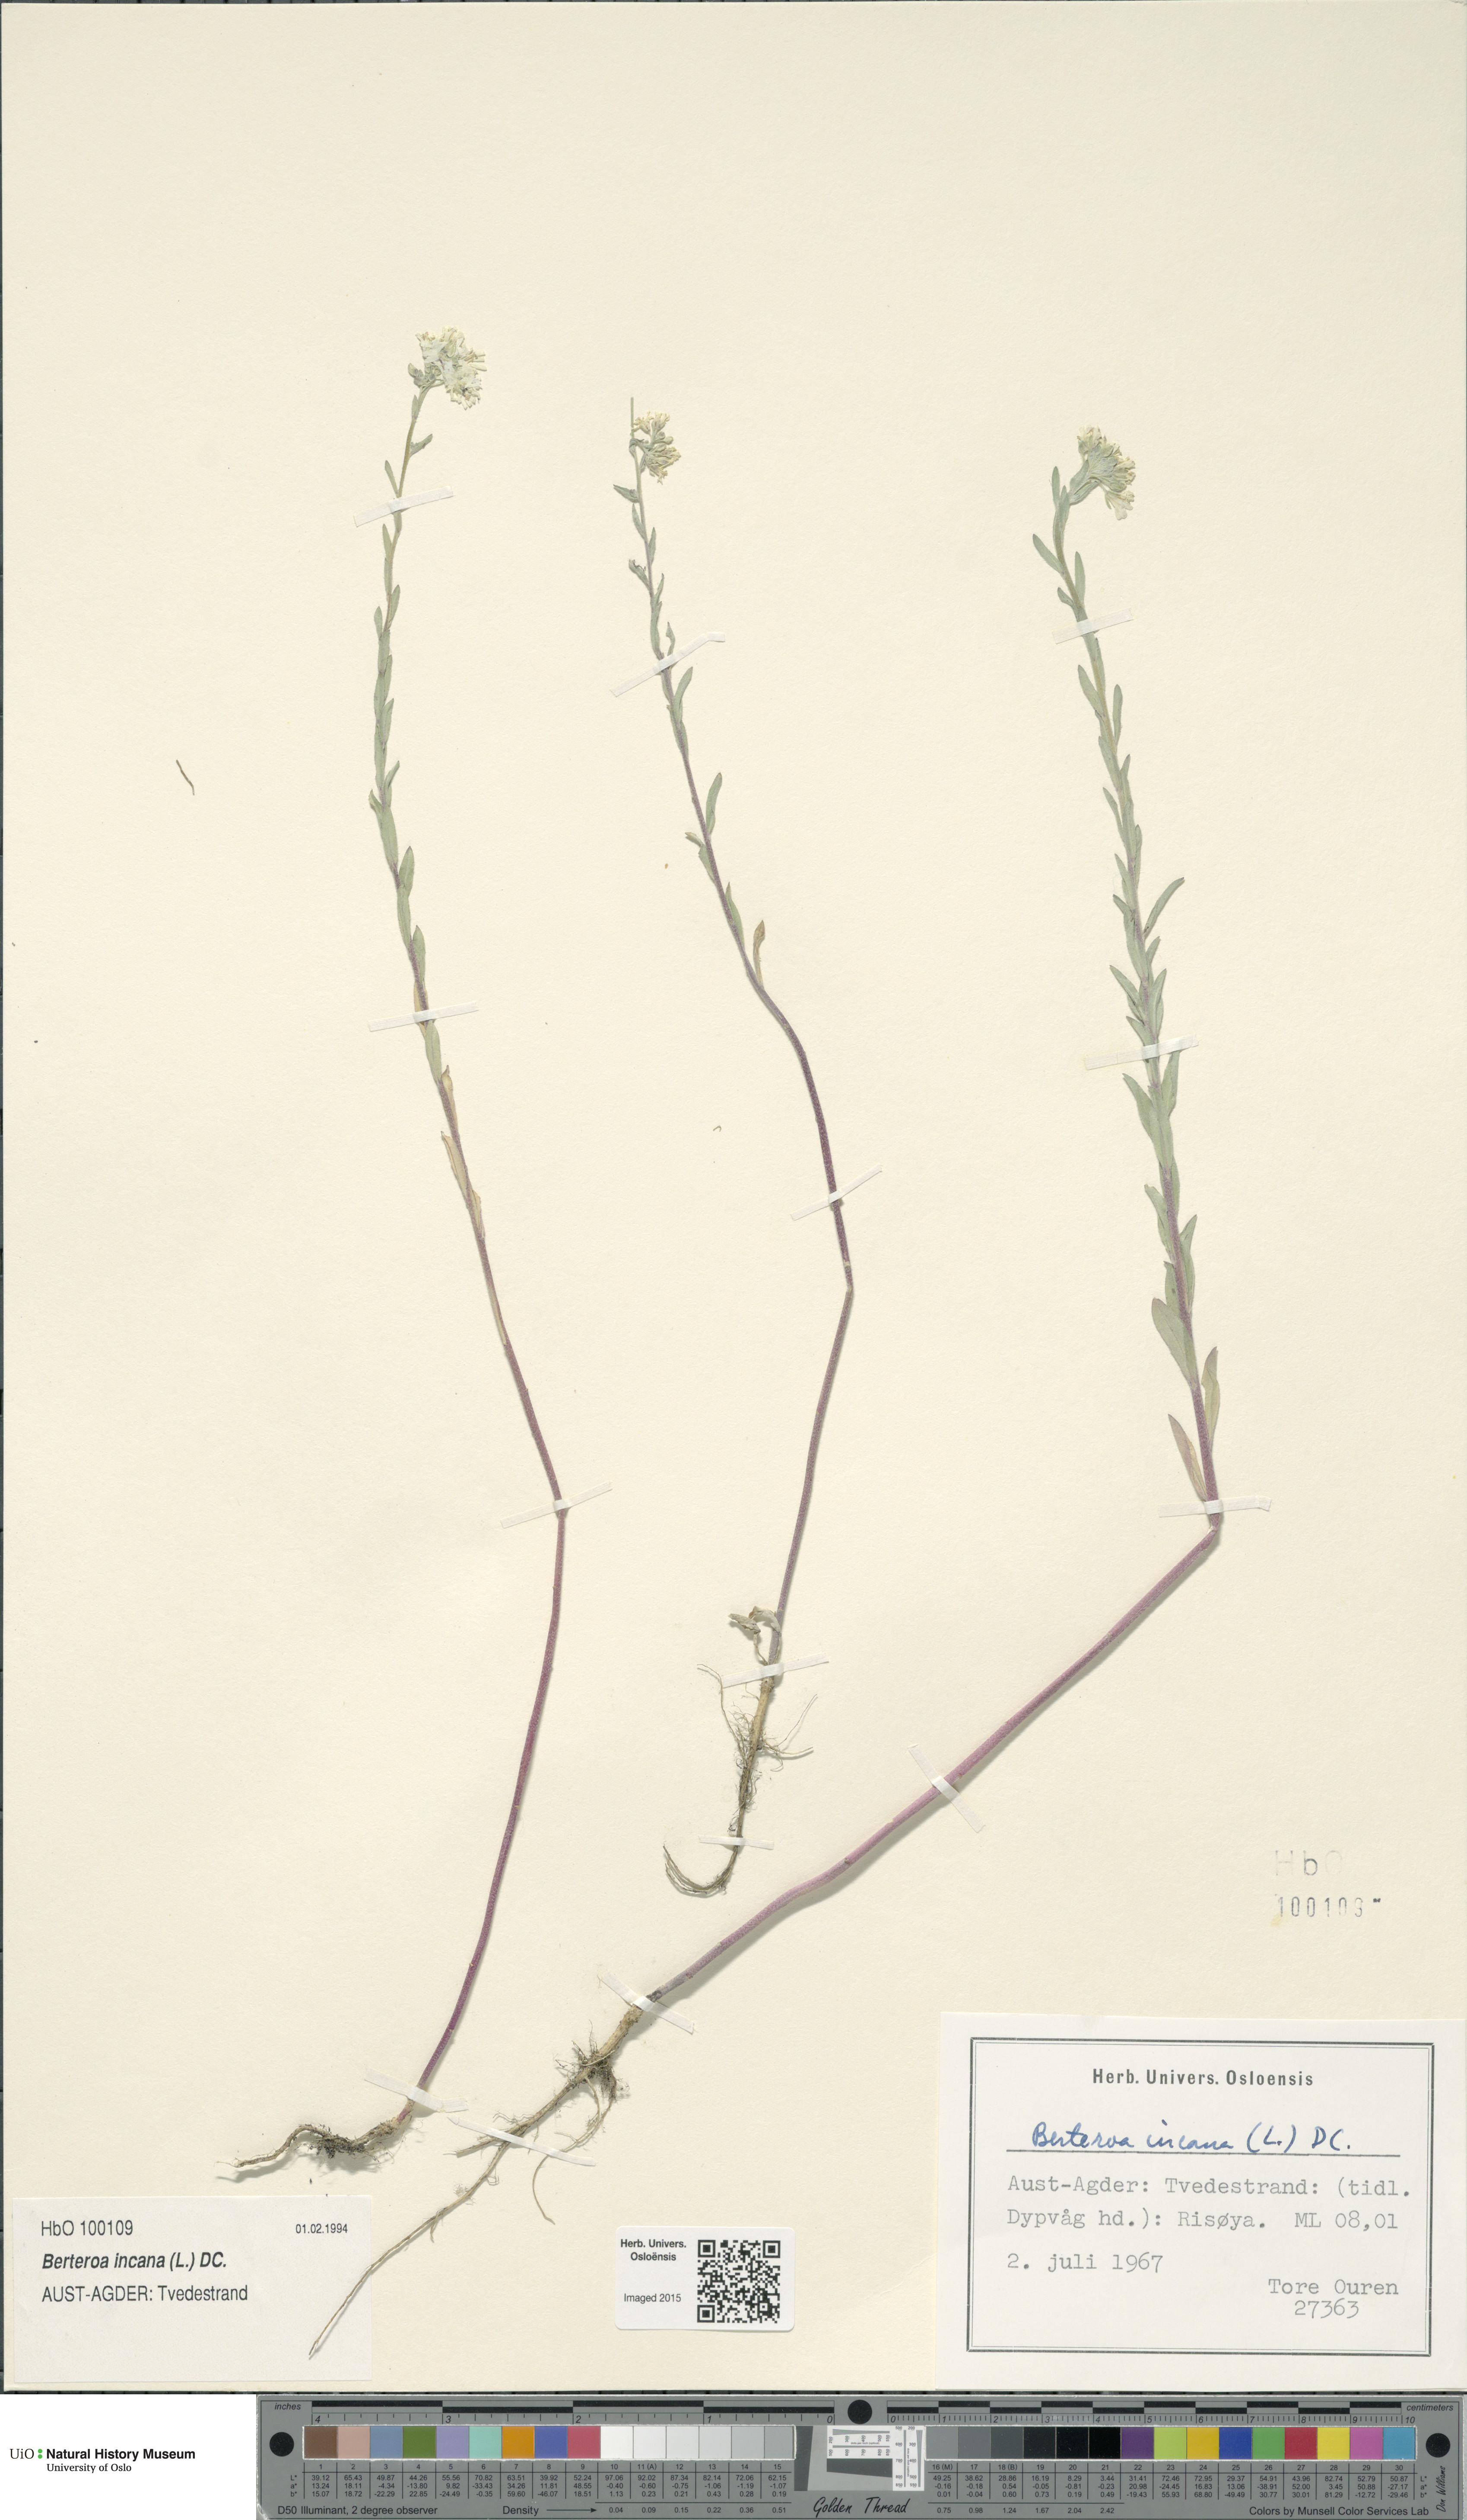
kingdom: Plantae
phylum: Tracheophyta
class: Magnoliopsida
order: Brassicales
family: Brassicaceae
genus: Berteroa
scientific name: Berteroa incana
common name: Hoary alison
